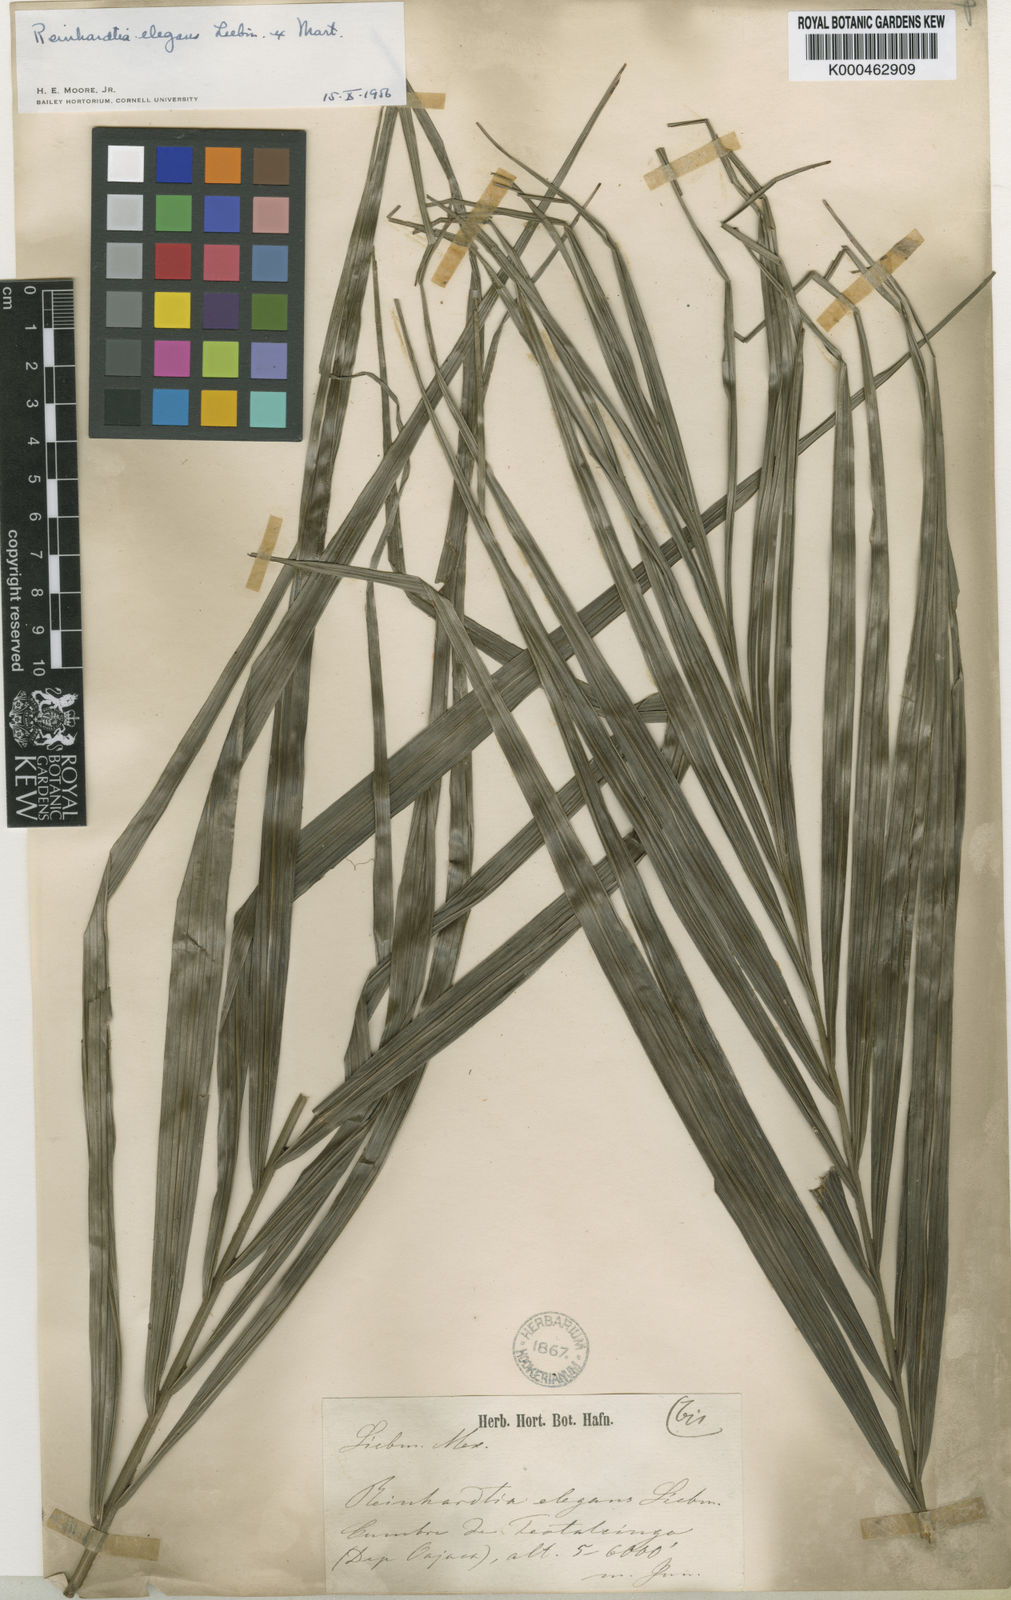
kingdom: Plantae
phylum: Tracheophyta
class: Liliopsida
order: Arecales
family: Arecaceae
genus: Reinhardtia
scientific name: Reinhardtia elegans
